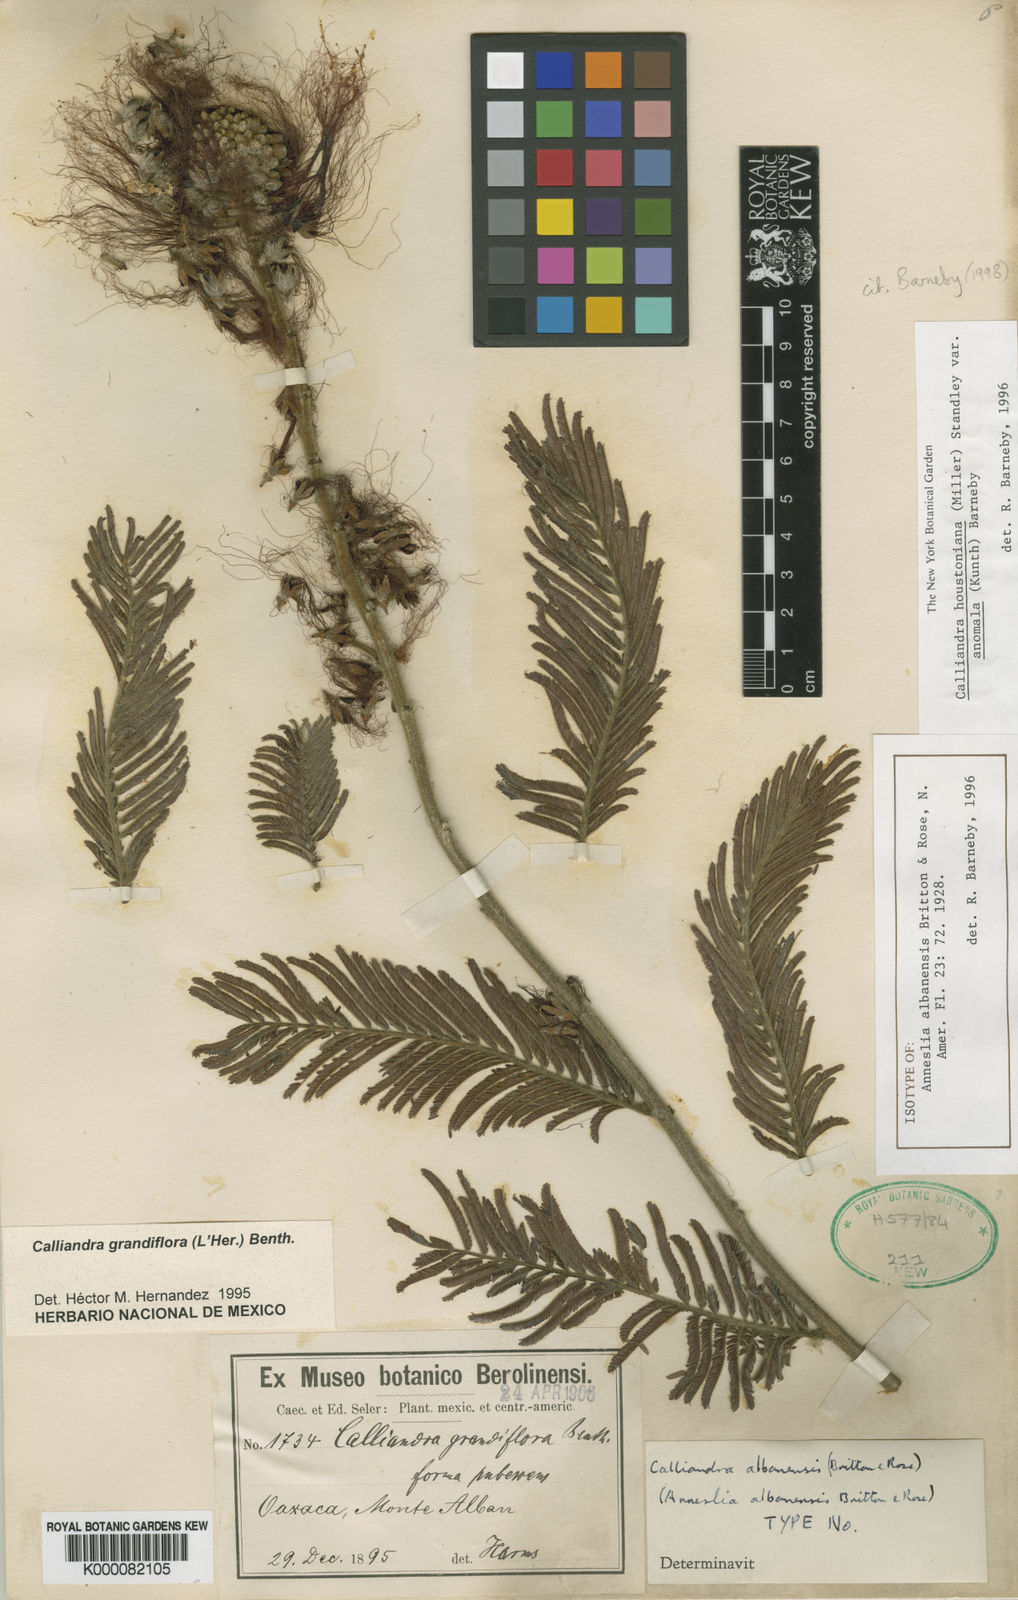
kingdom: Plantae
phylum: Tracheophyta
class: Magnoliopsida
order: Fabales
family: Fabaceae
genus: Calliandra
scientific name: Calliandra houstoniana
